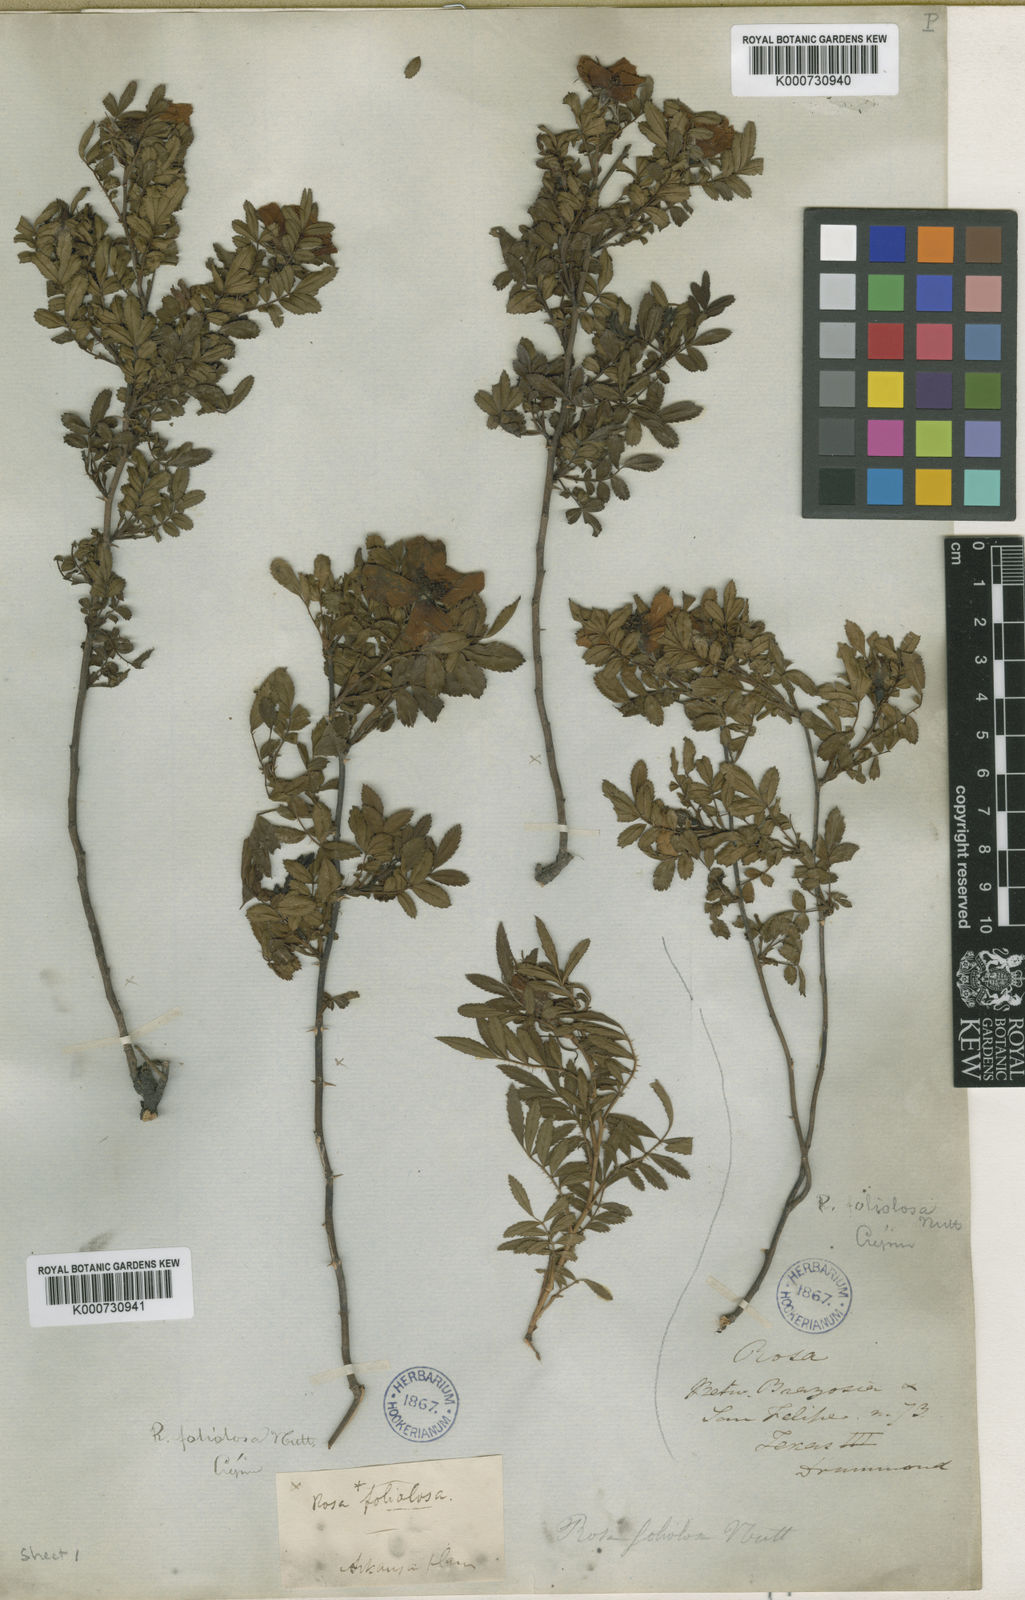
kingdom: Plantae
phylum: Tracheophyta
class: Magnoliopsida
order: Rosales
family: Rosaceae
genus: Rosa
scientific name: Rosa
